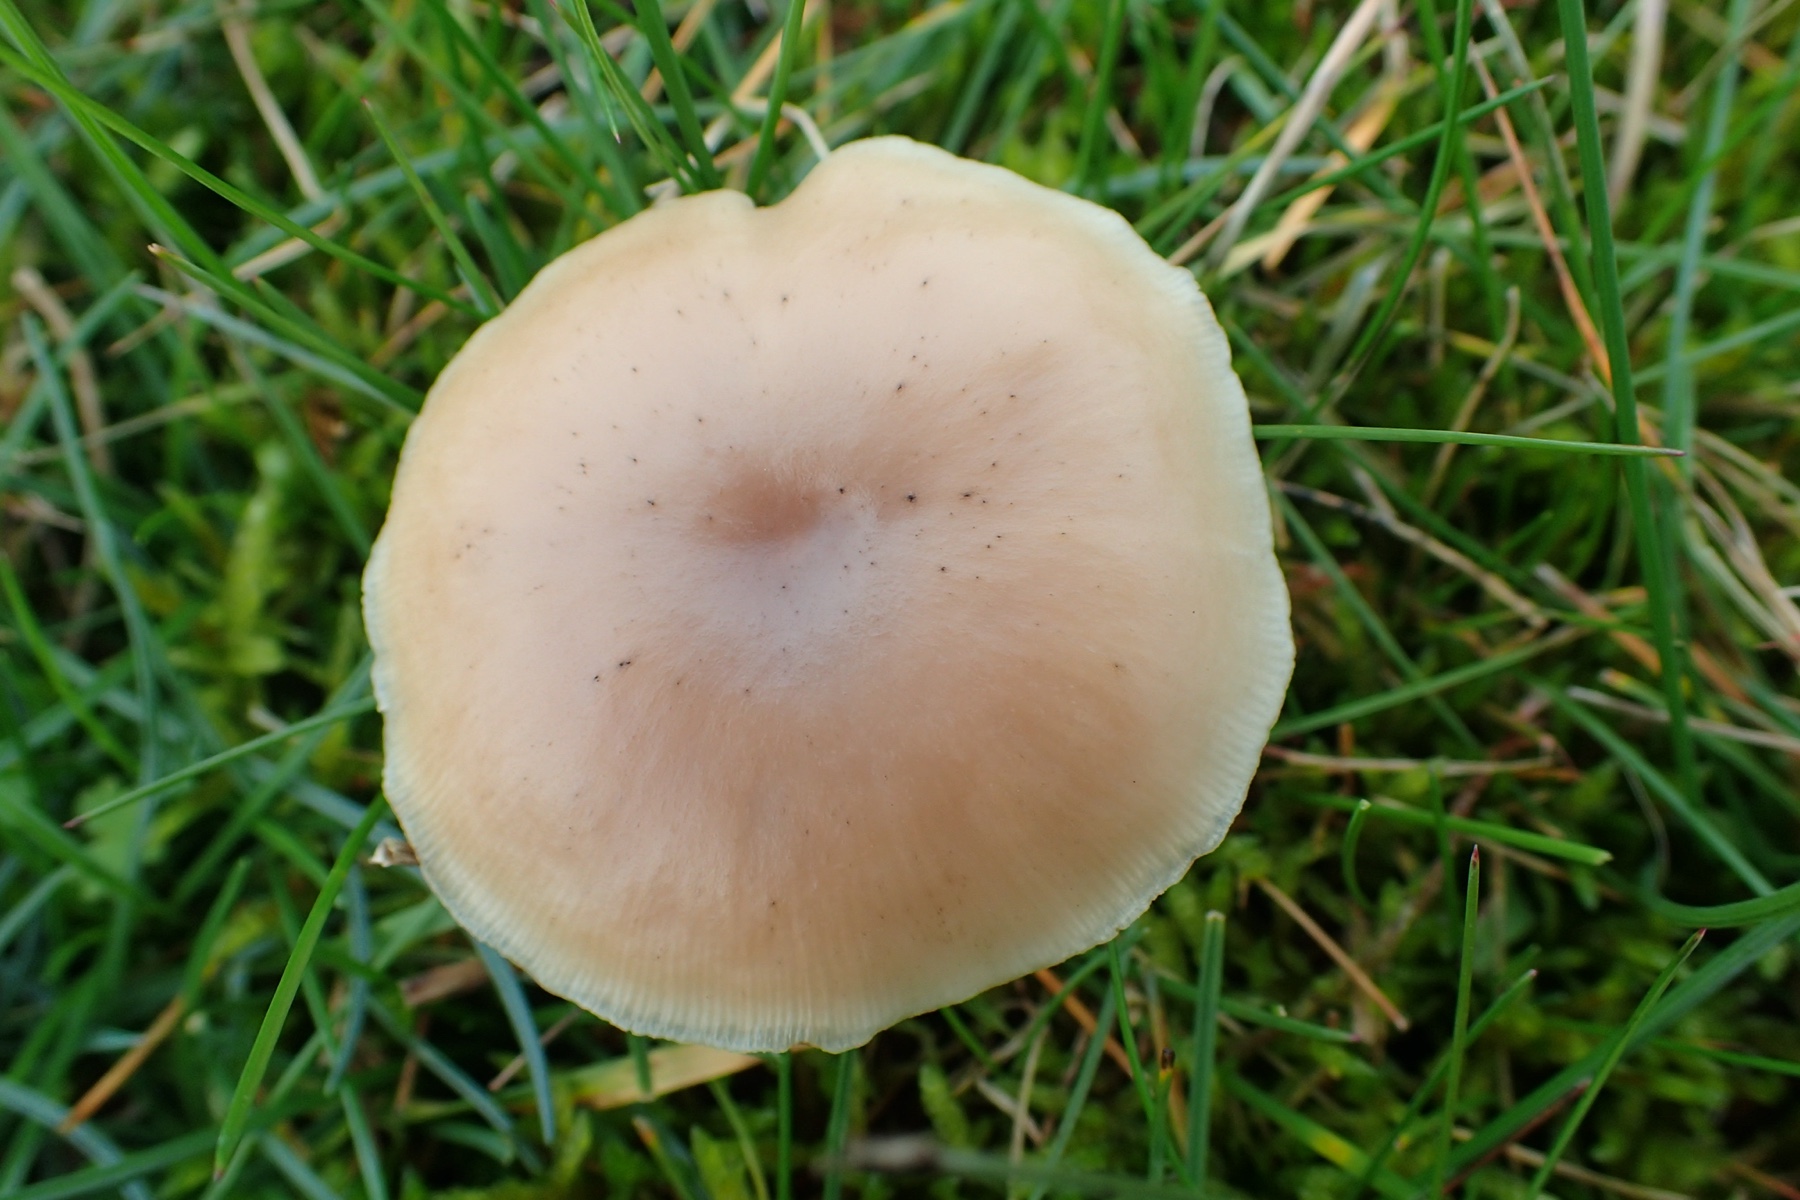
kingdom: Fungi
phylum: Basidiomycota
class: Agaricomycetes
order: Agaricales
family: Tricholomataceae
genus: Clitocybe
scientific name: Clitocybe
